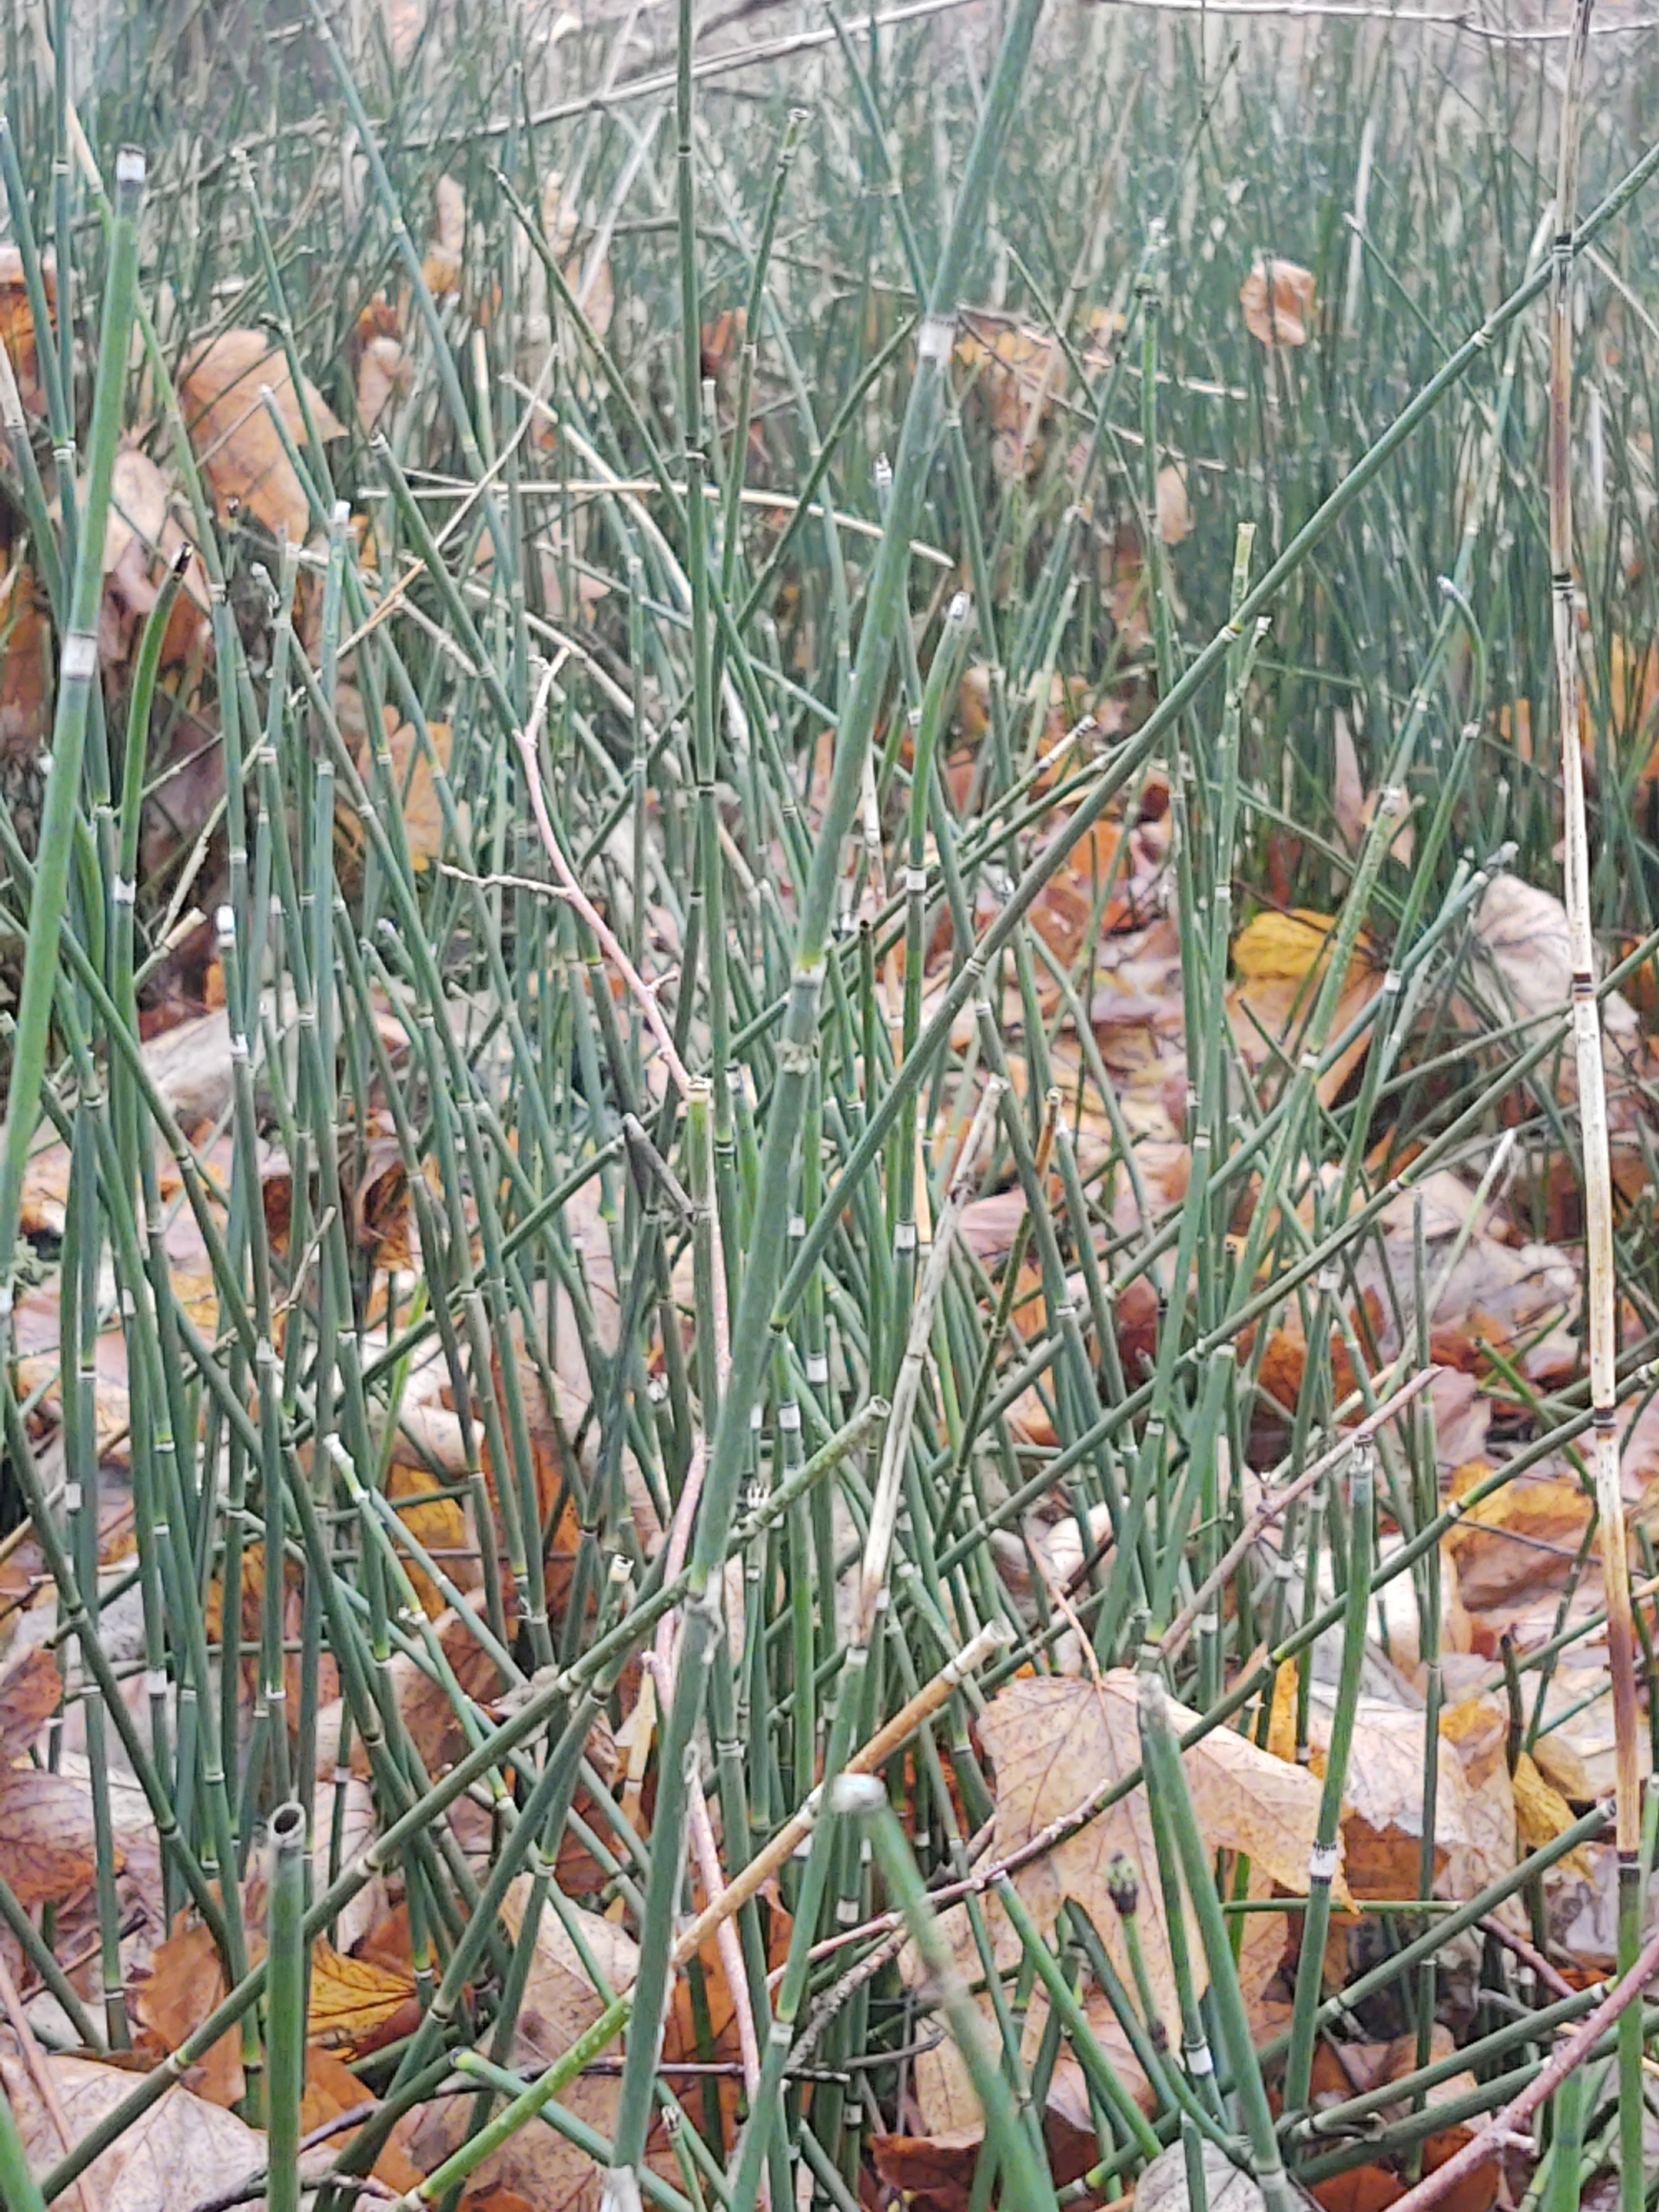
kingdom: Plantae
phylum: Tracheophyta
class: Polypodiopsida
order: Equisetales
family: Equisetaceae
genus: Equisetum
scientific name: Equisetum hyemale
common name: Skavgræs
